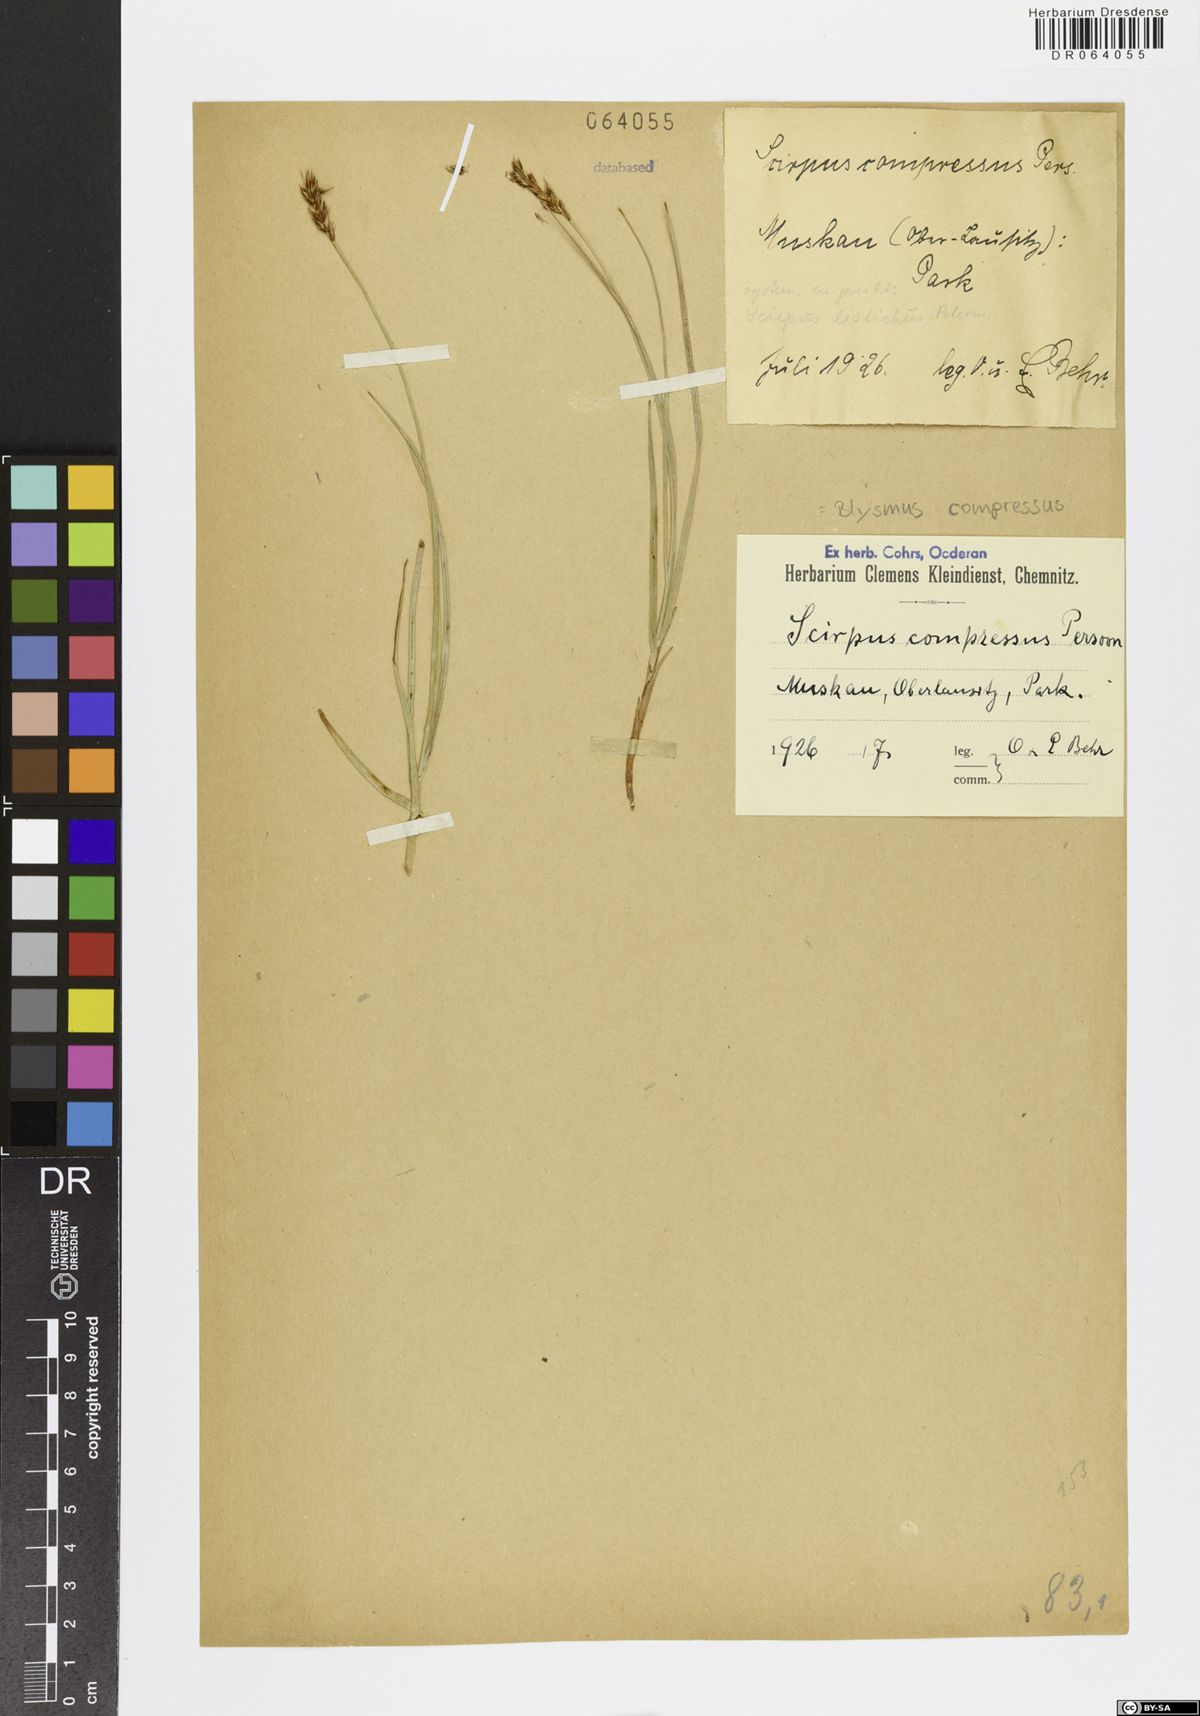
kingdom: Plantae
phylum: Tracheophyta
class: Liliopsida
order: Poales
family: Cyperaceae
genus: Blysmus
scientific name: Blysmus compressus
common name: Flat-sedge
